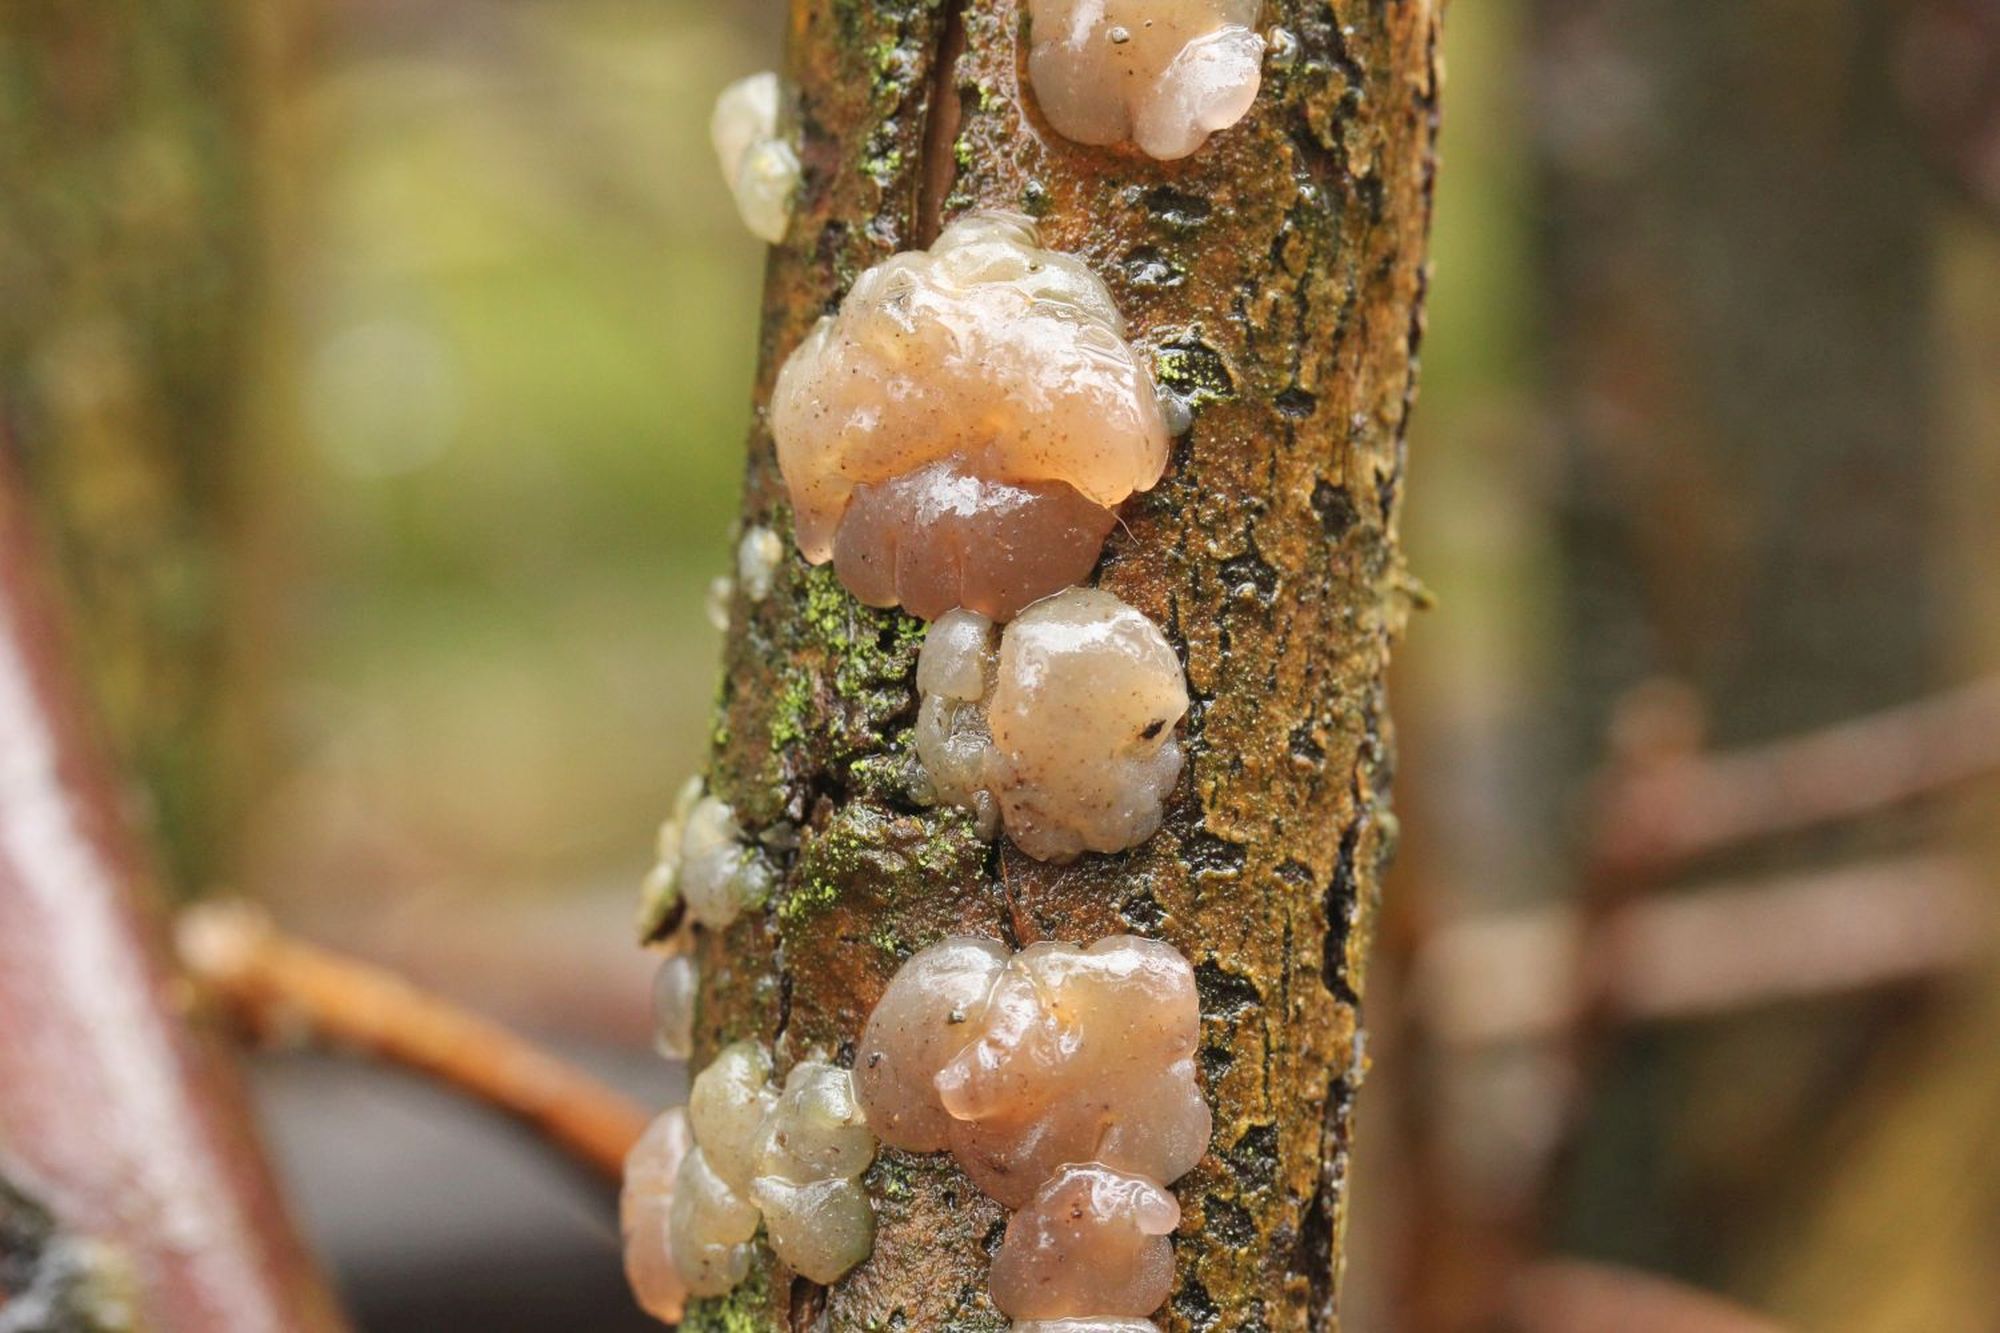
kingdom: Fungi
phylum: Basidiomycota
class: Agaricomycetes
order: Auriculariales
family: Hyaloriaceae
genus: Myxarium
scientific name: Myxarium hyalinum
